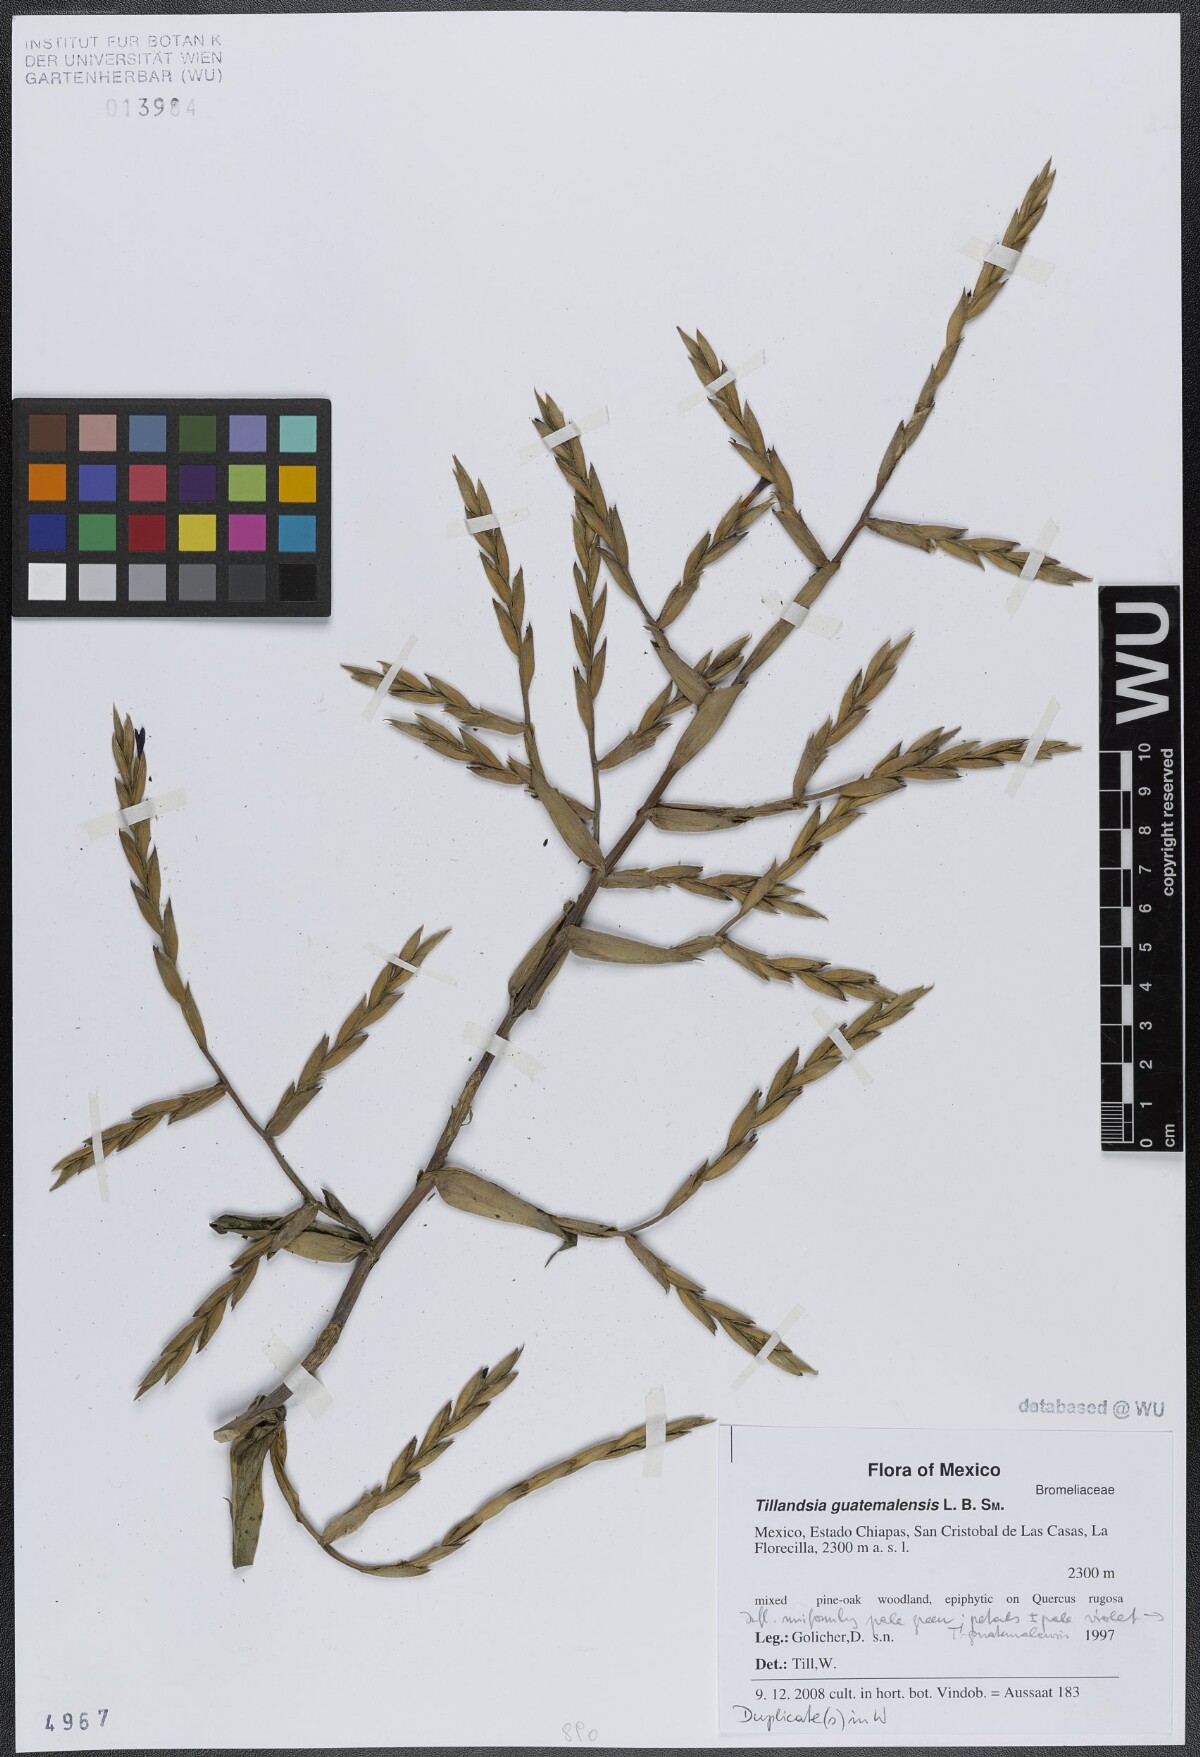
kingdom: Plantae
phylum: Tracheophyta
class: Liliopsida
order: Poales
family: Bromeliaceae
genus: Tillandsia
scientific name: Tillandsia guatemalensis
